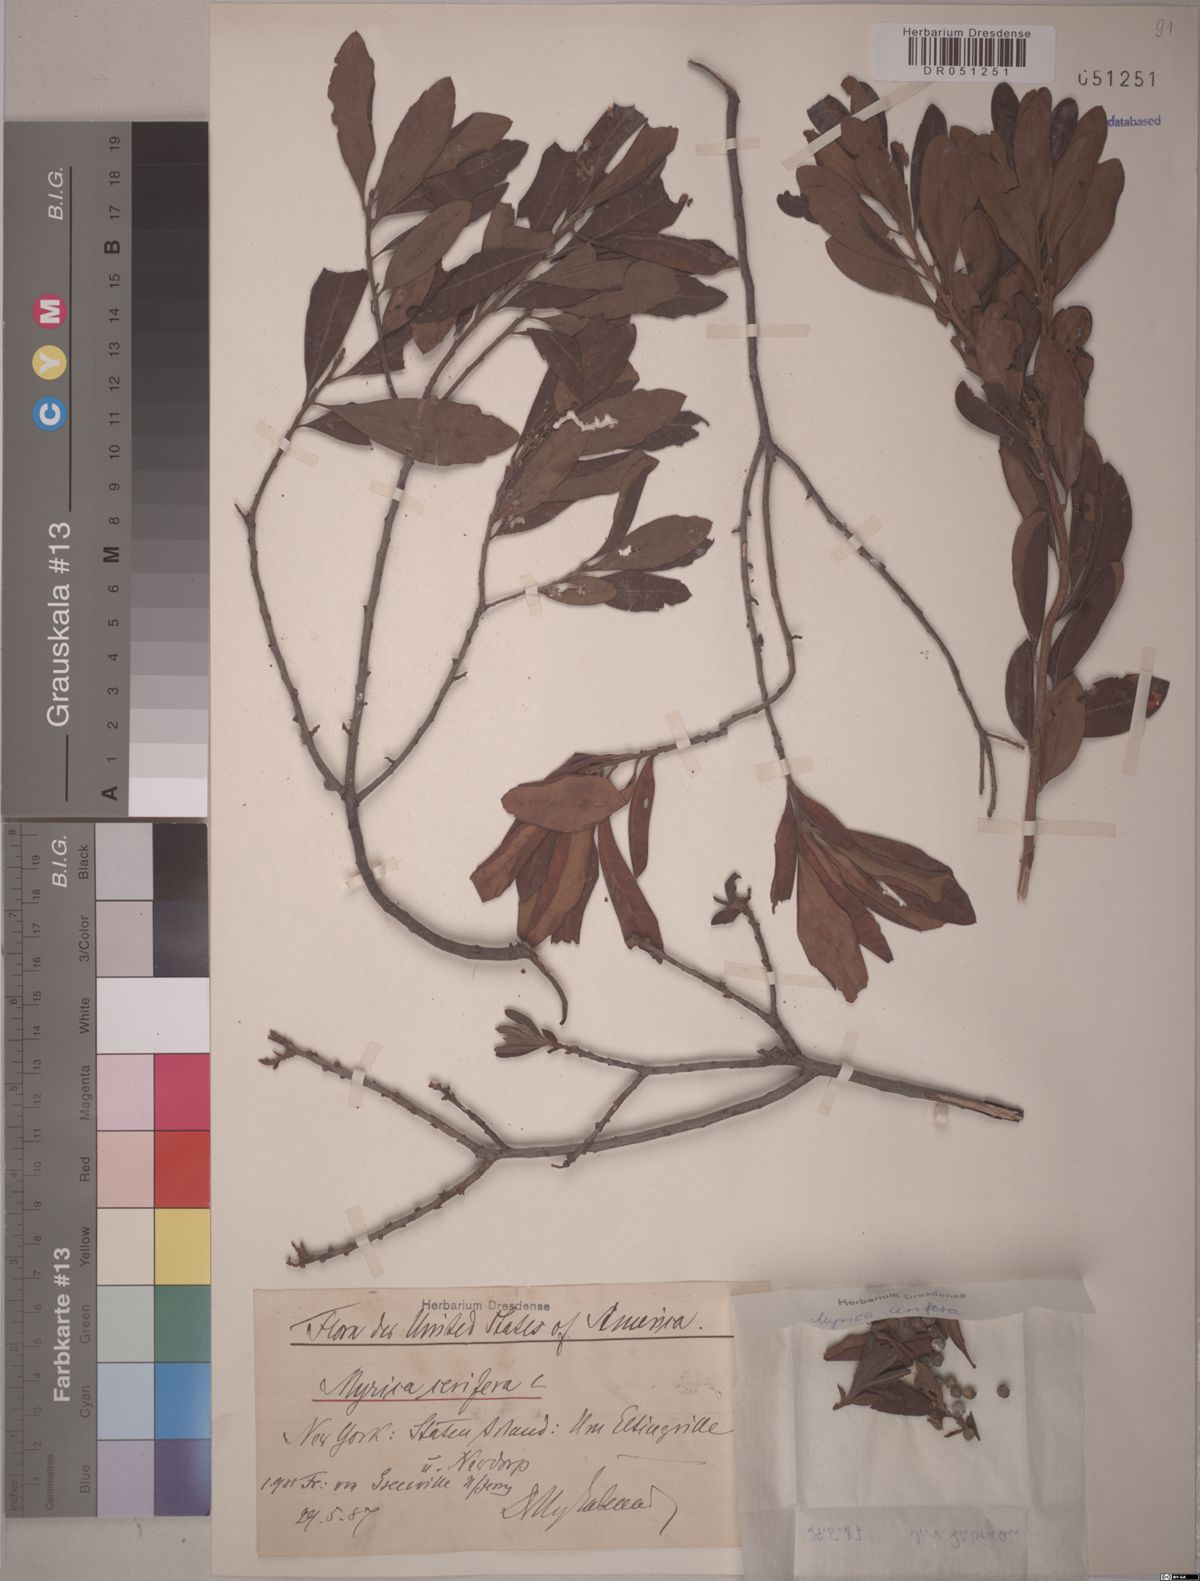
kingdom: Plantae
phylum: Tracheophyta
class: Magnoliopsida
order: Fagales
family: Myricaceae
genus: Morella
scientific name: Morella cerifera
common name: Wax myrtle
